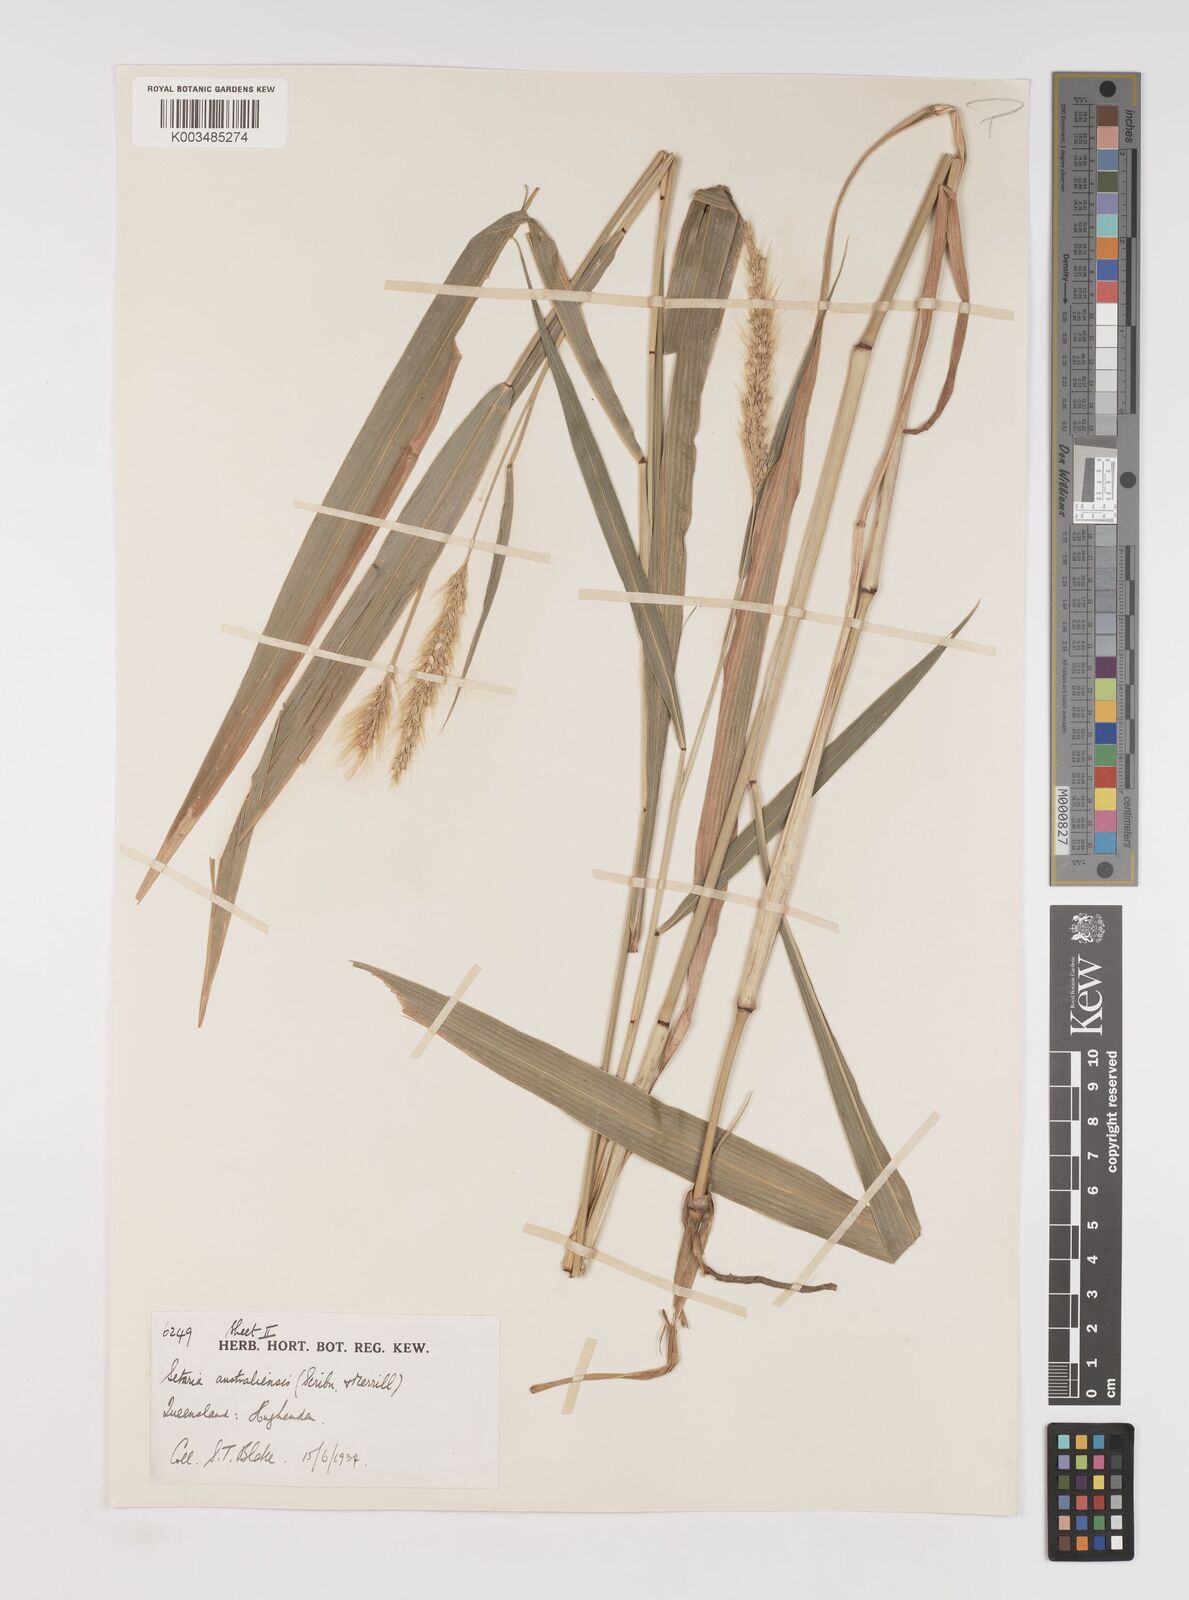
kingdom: Plantae
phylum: Tracheophyta
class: Liliopsida
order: Poales
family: Poaceae
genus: Setaria
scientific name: Setaria australiensis
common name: Scrub pigeon grass
